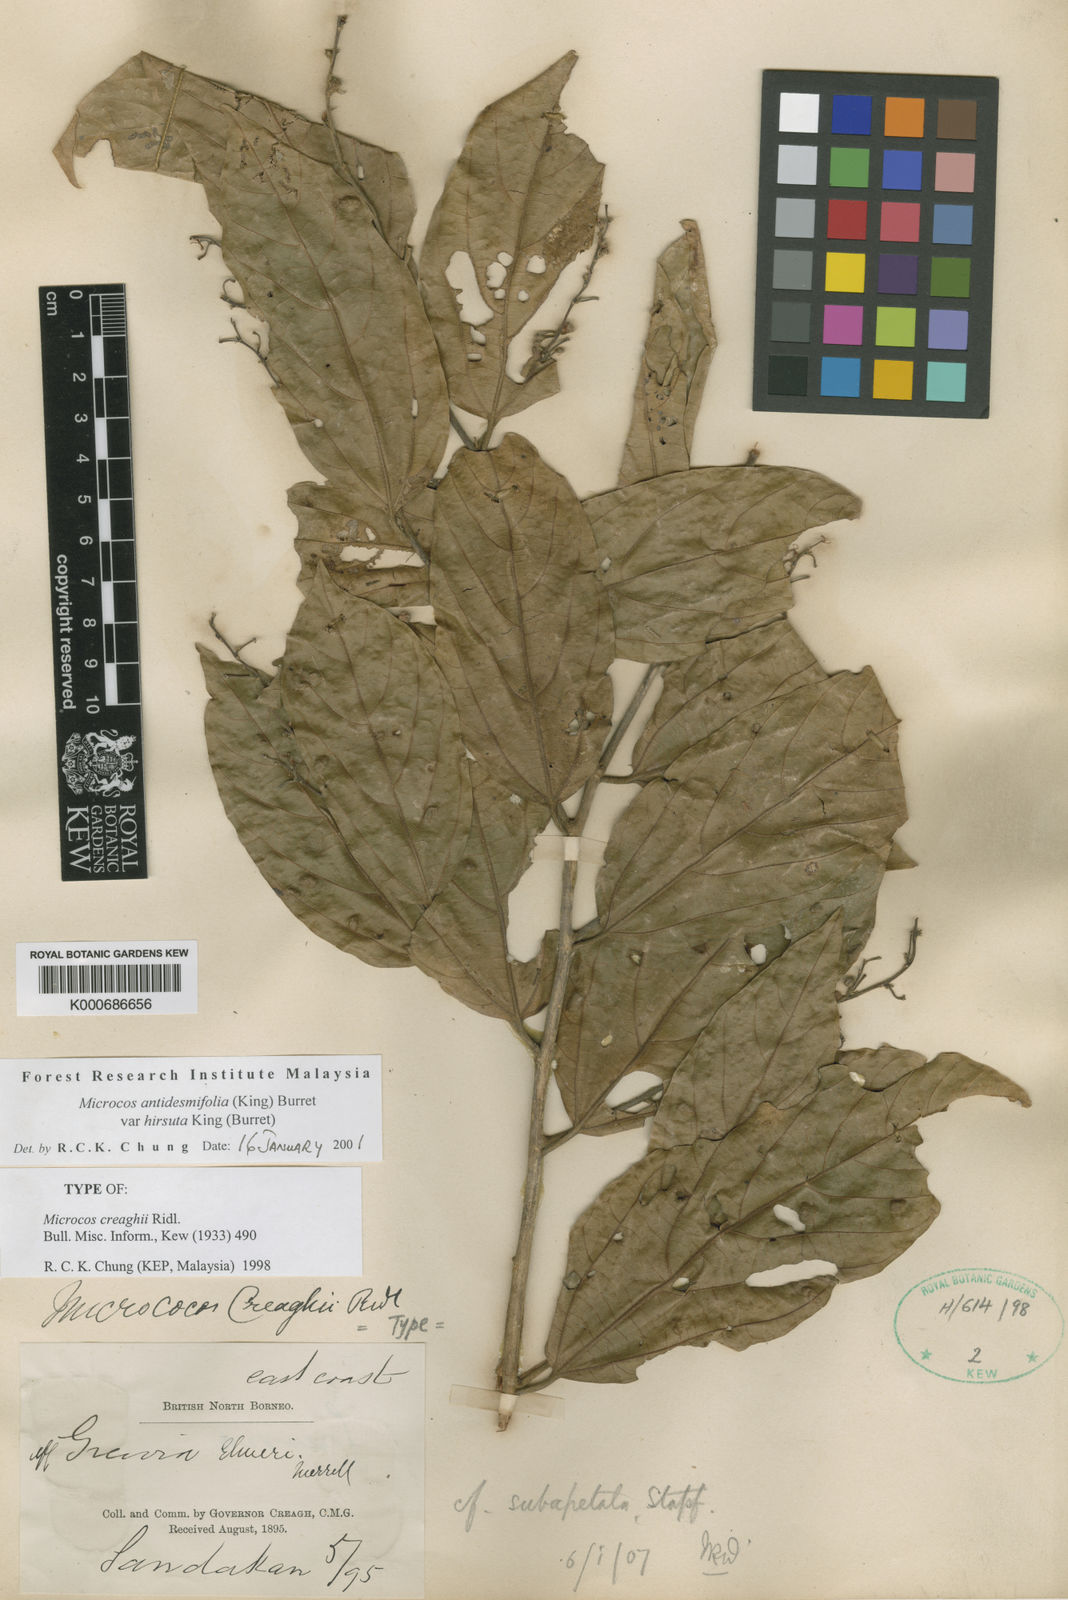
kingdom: Plantae
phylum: Tracheophyta
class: Magnoliopsida
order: Malvales
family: Malvaceae
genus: Microcos
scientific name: Microcos antidesmifolia
